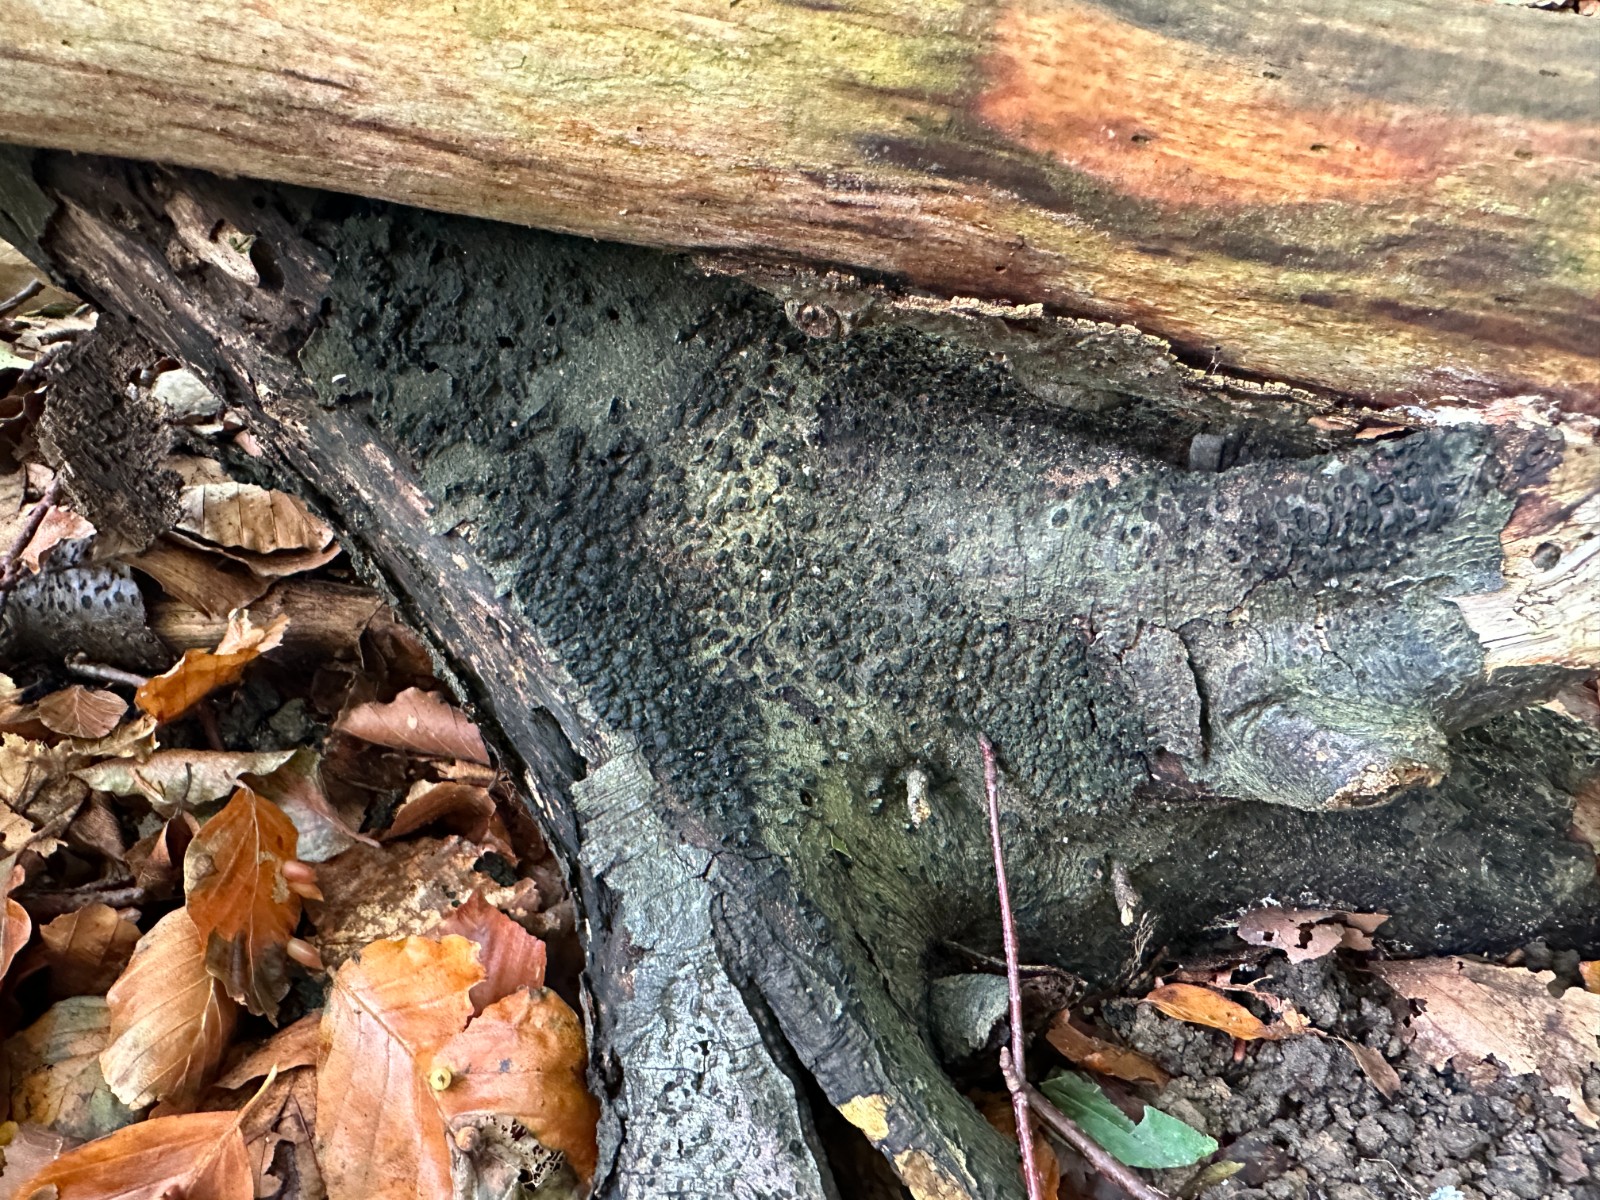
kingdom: Fungi
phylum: Ascomycota
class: Sordariomycetes
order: Xylariales
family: Melogrammataceae
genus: Melogramma
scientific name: Melogramma spiniferum
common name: bøgefod-kulhals
